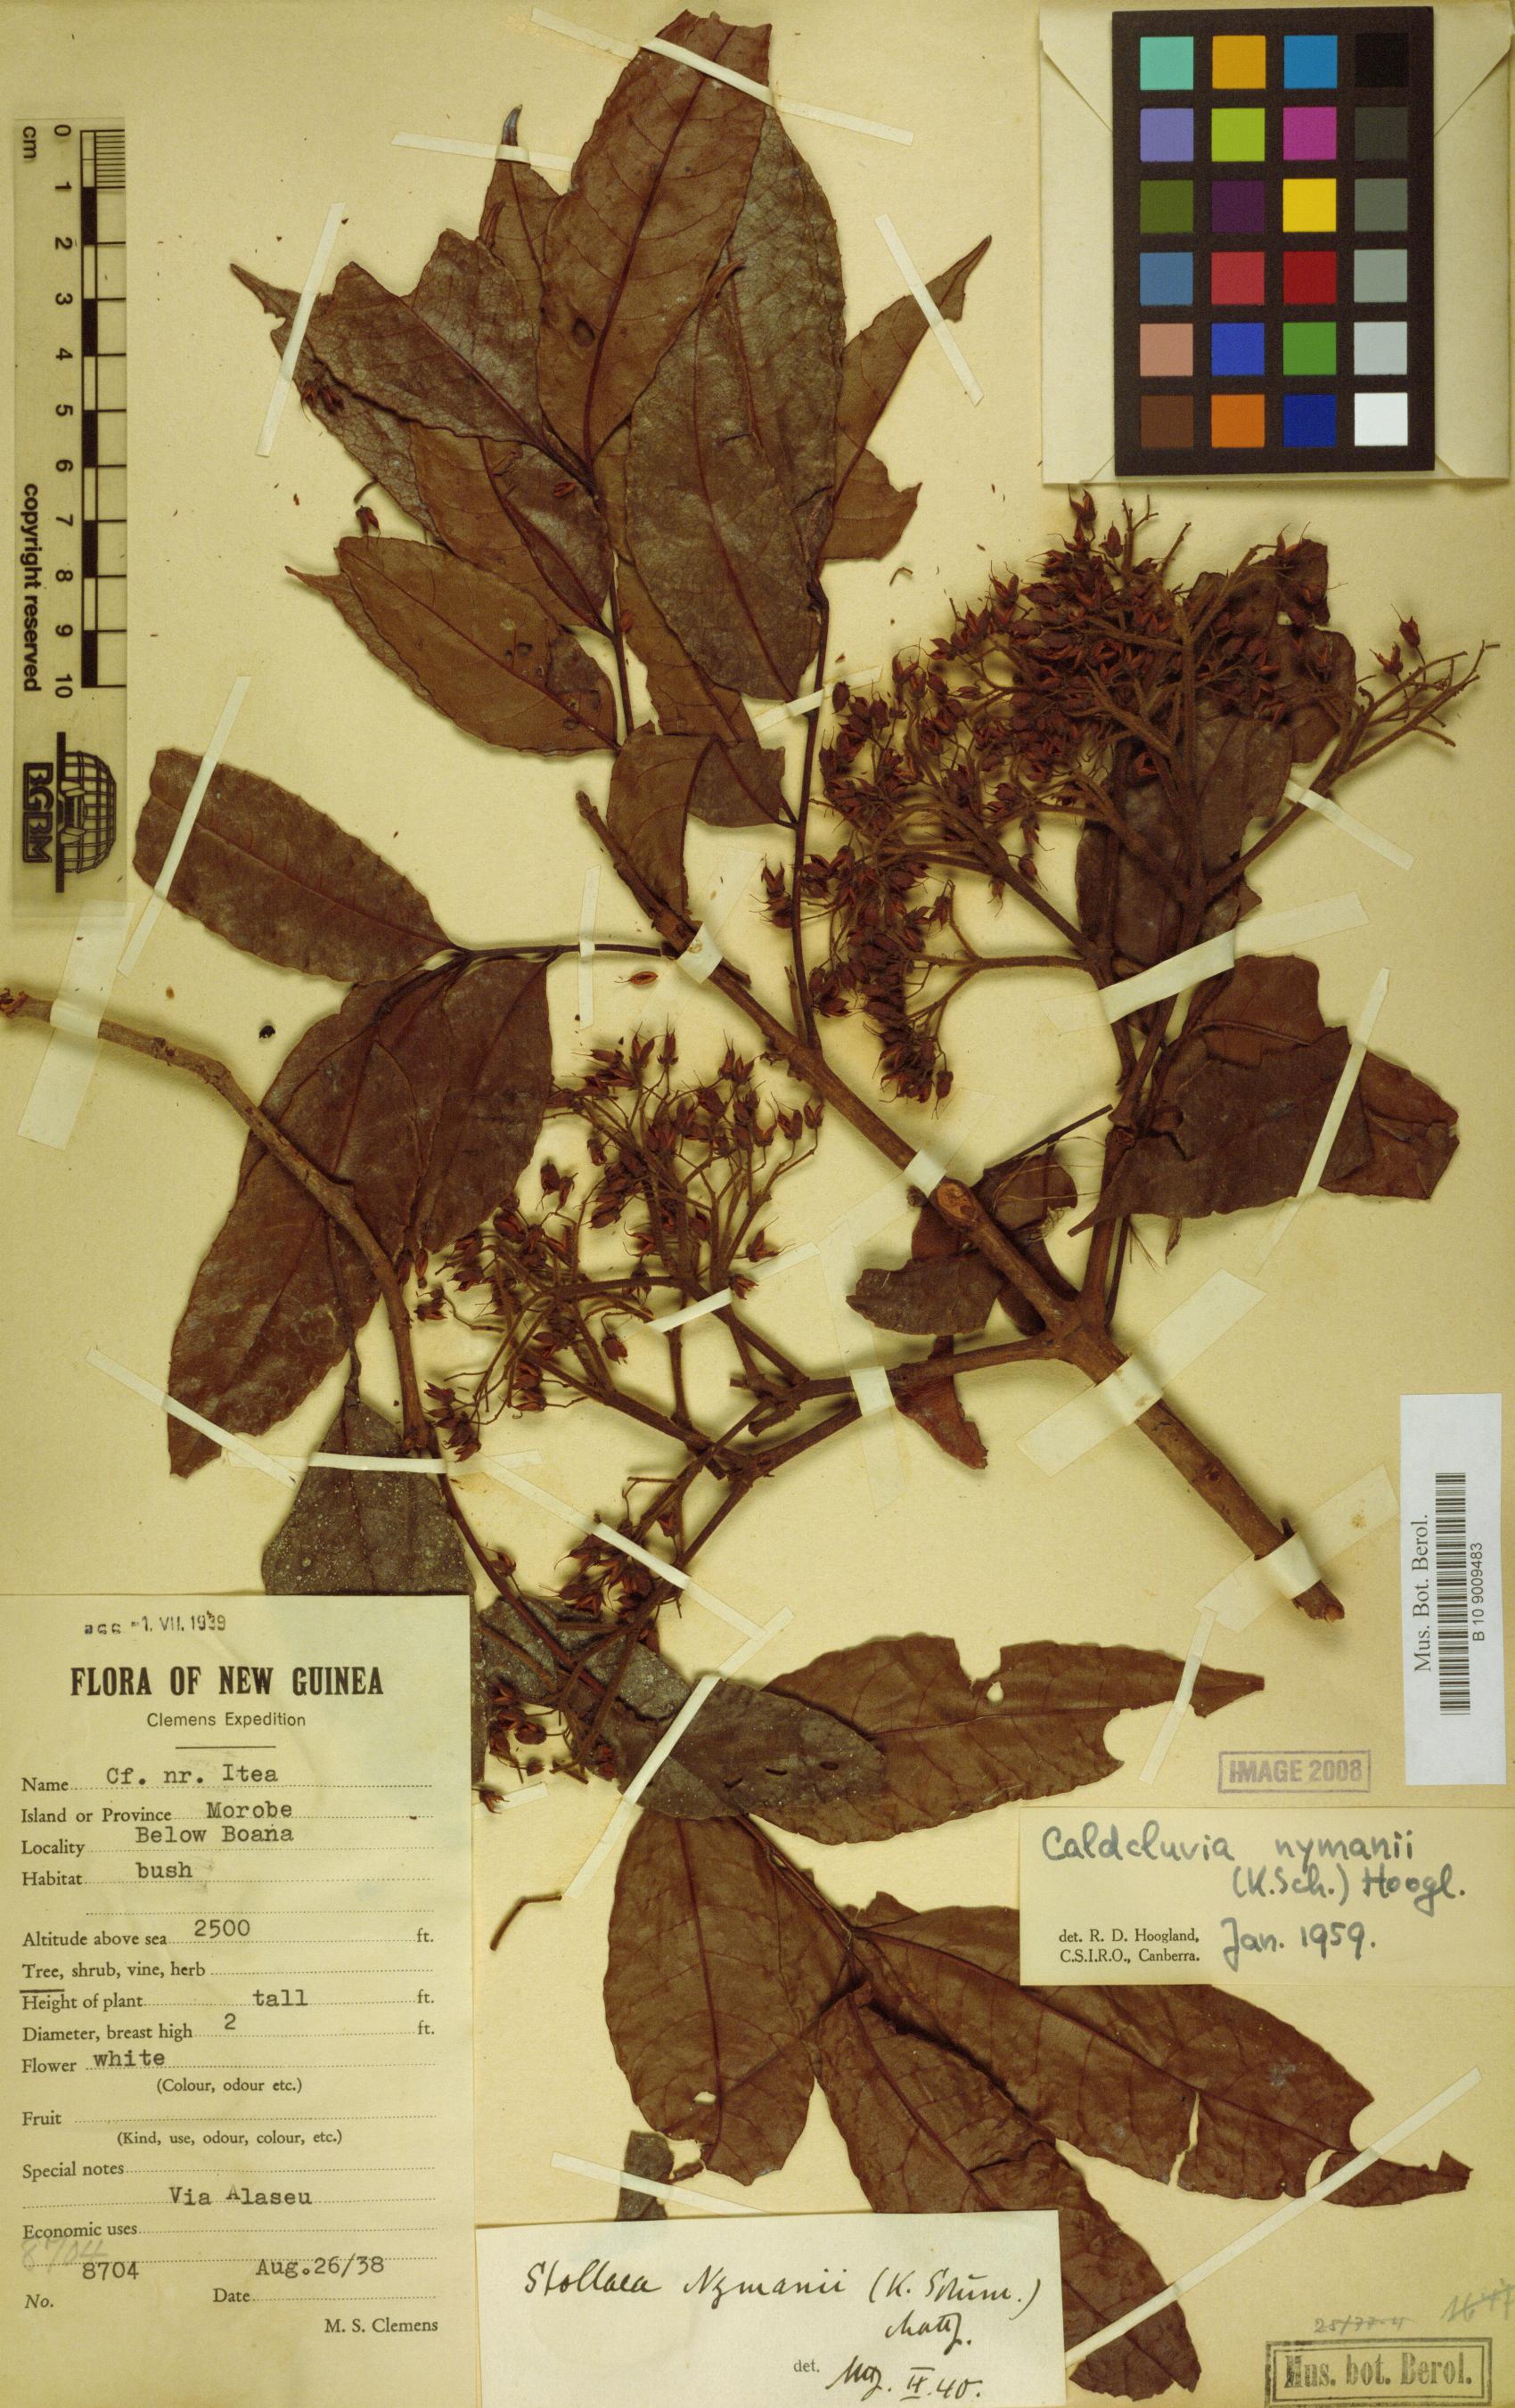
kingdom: Plantae
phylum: Tracheophyta
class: Magnoliopsida
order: Oxalidales
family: Cunoniaceae
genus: Opocunonia
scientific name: Opocunonia nymanii
